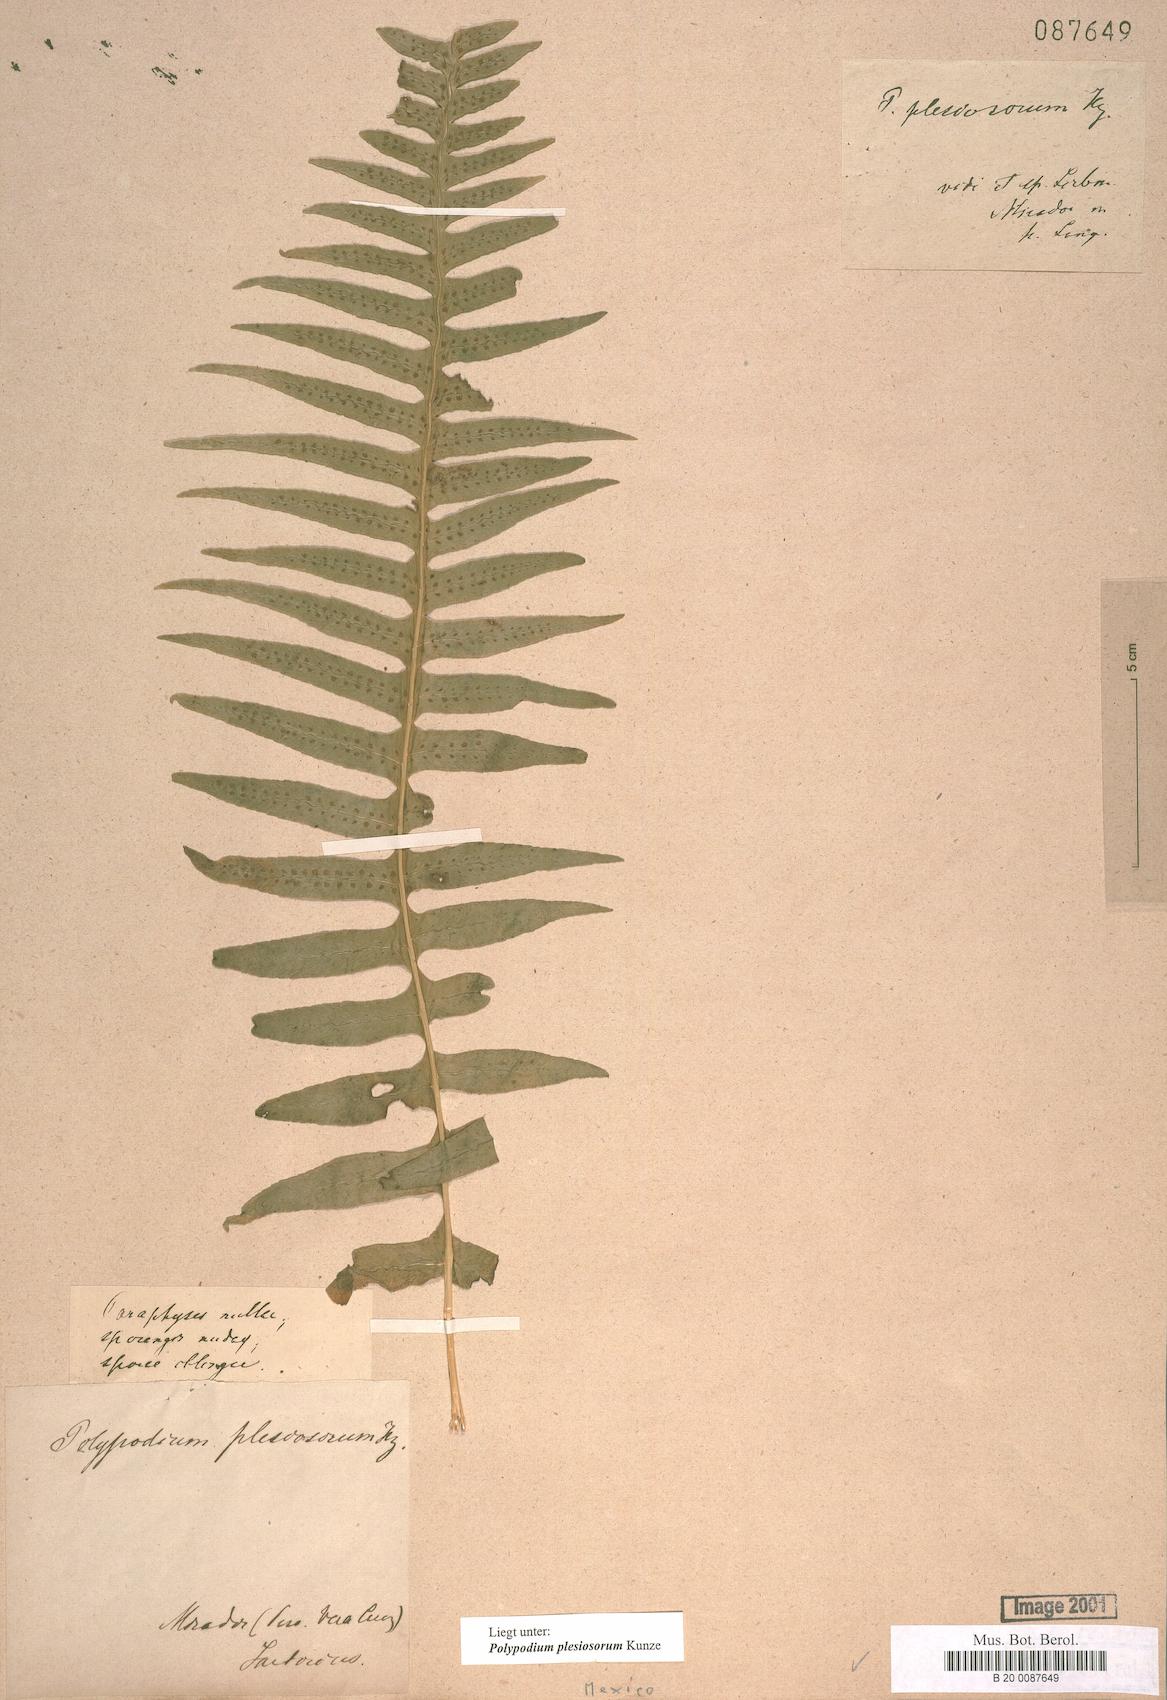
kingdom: Plantae
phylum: Tracheophyta
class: Polypodiopsida
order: Polypodiales
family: Polypodiaceae
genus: Polypodium
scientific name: Polypodium plesiosorum
